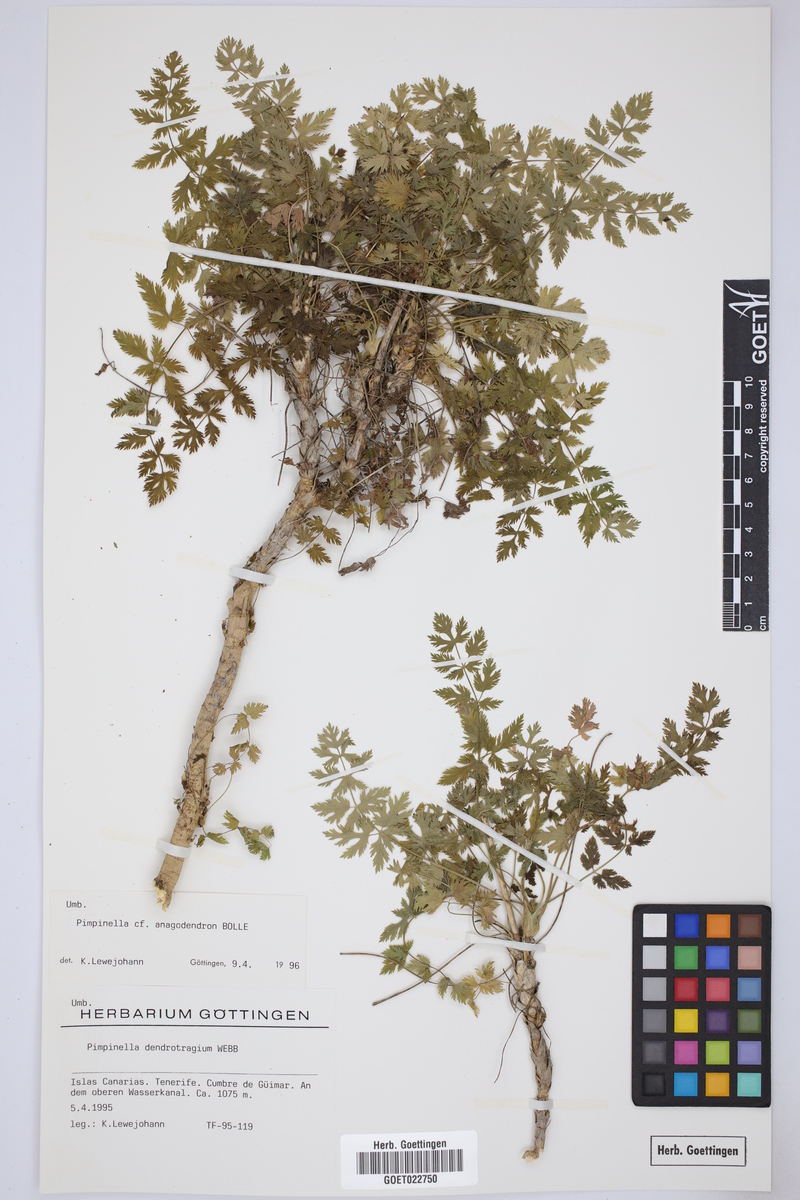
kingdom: Plantae
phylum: Tracheophyta
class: Magnoliopsida
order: Apiales
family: Apiaceae
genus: Pimpinella
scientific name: Pimpinella anagodendron
